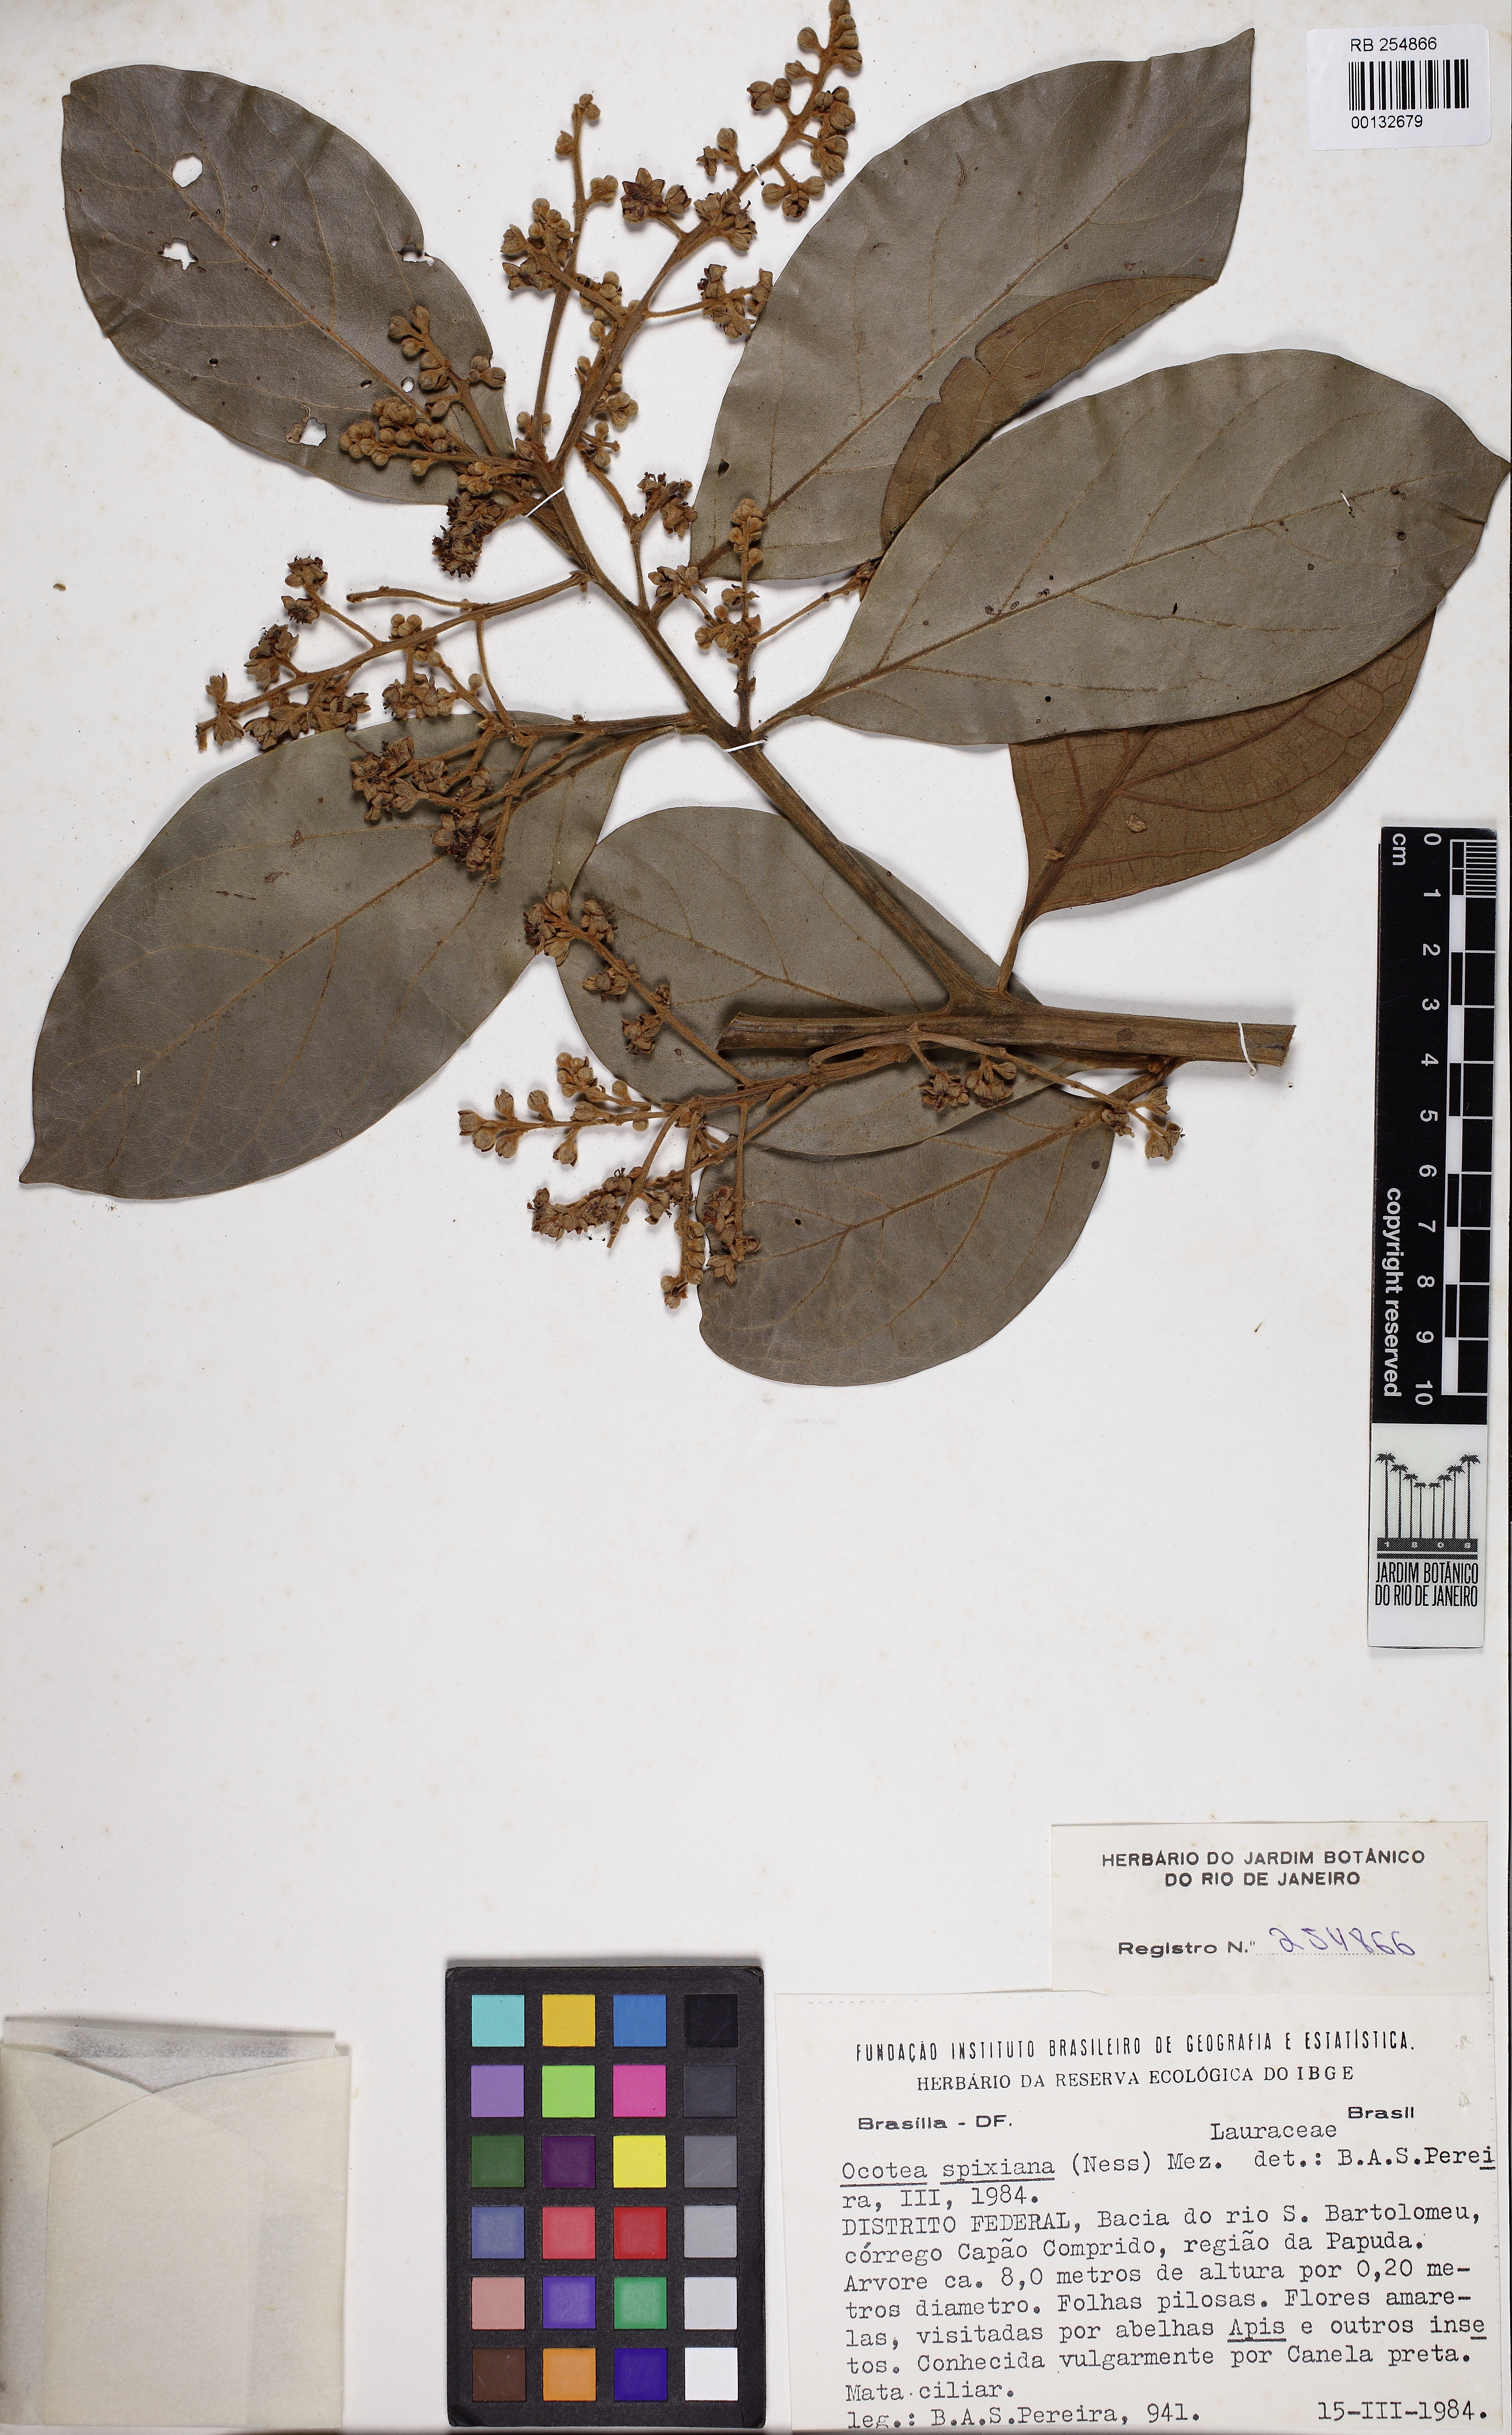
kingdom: Plantae
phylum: Tracheophyta
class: Magnoliopsida
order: Laurales
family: Lauraceae
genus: Ocotea
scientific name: Ocotea spixiana
